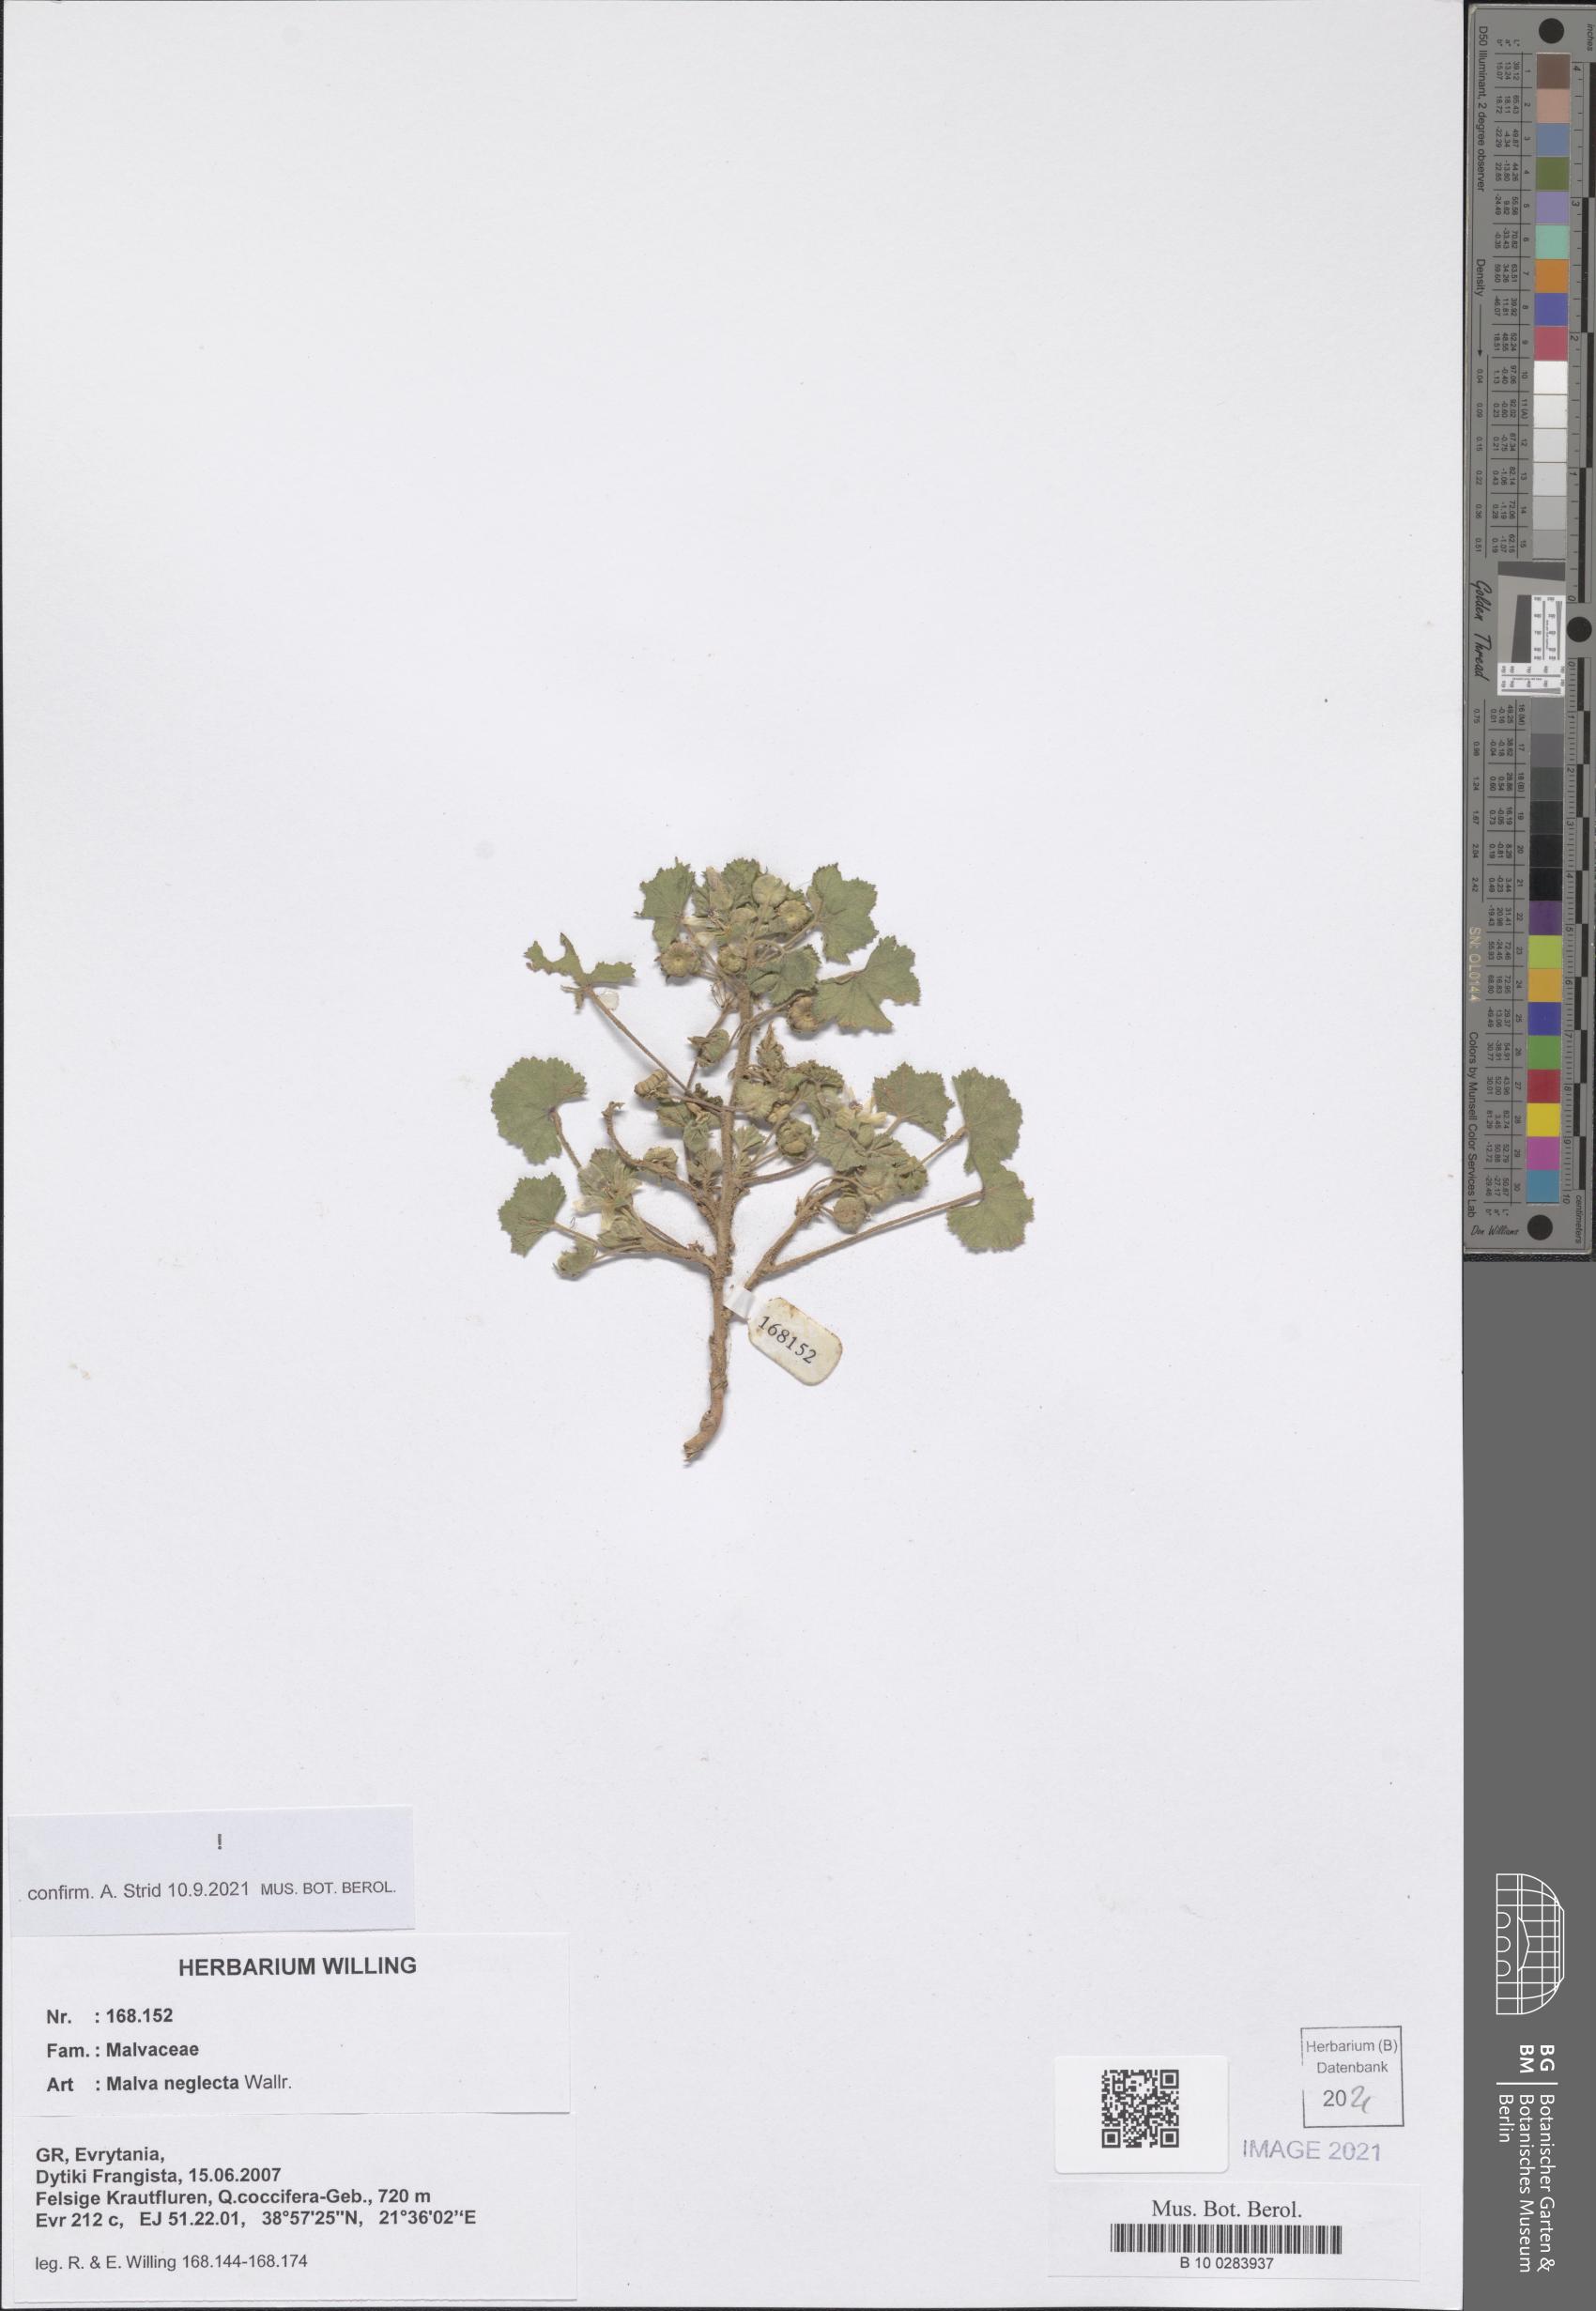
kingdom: Plantae
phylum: Tracheophyta
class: Magnoliopsida
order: Malvales
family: Malvaceae
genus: Malva
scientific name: Malva neglecta
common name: Common mallow
